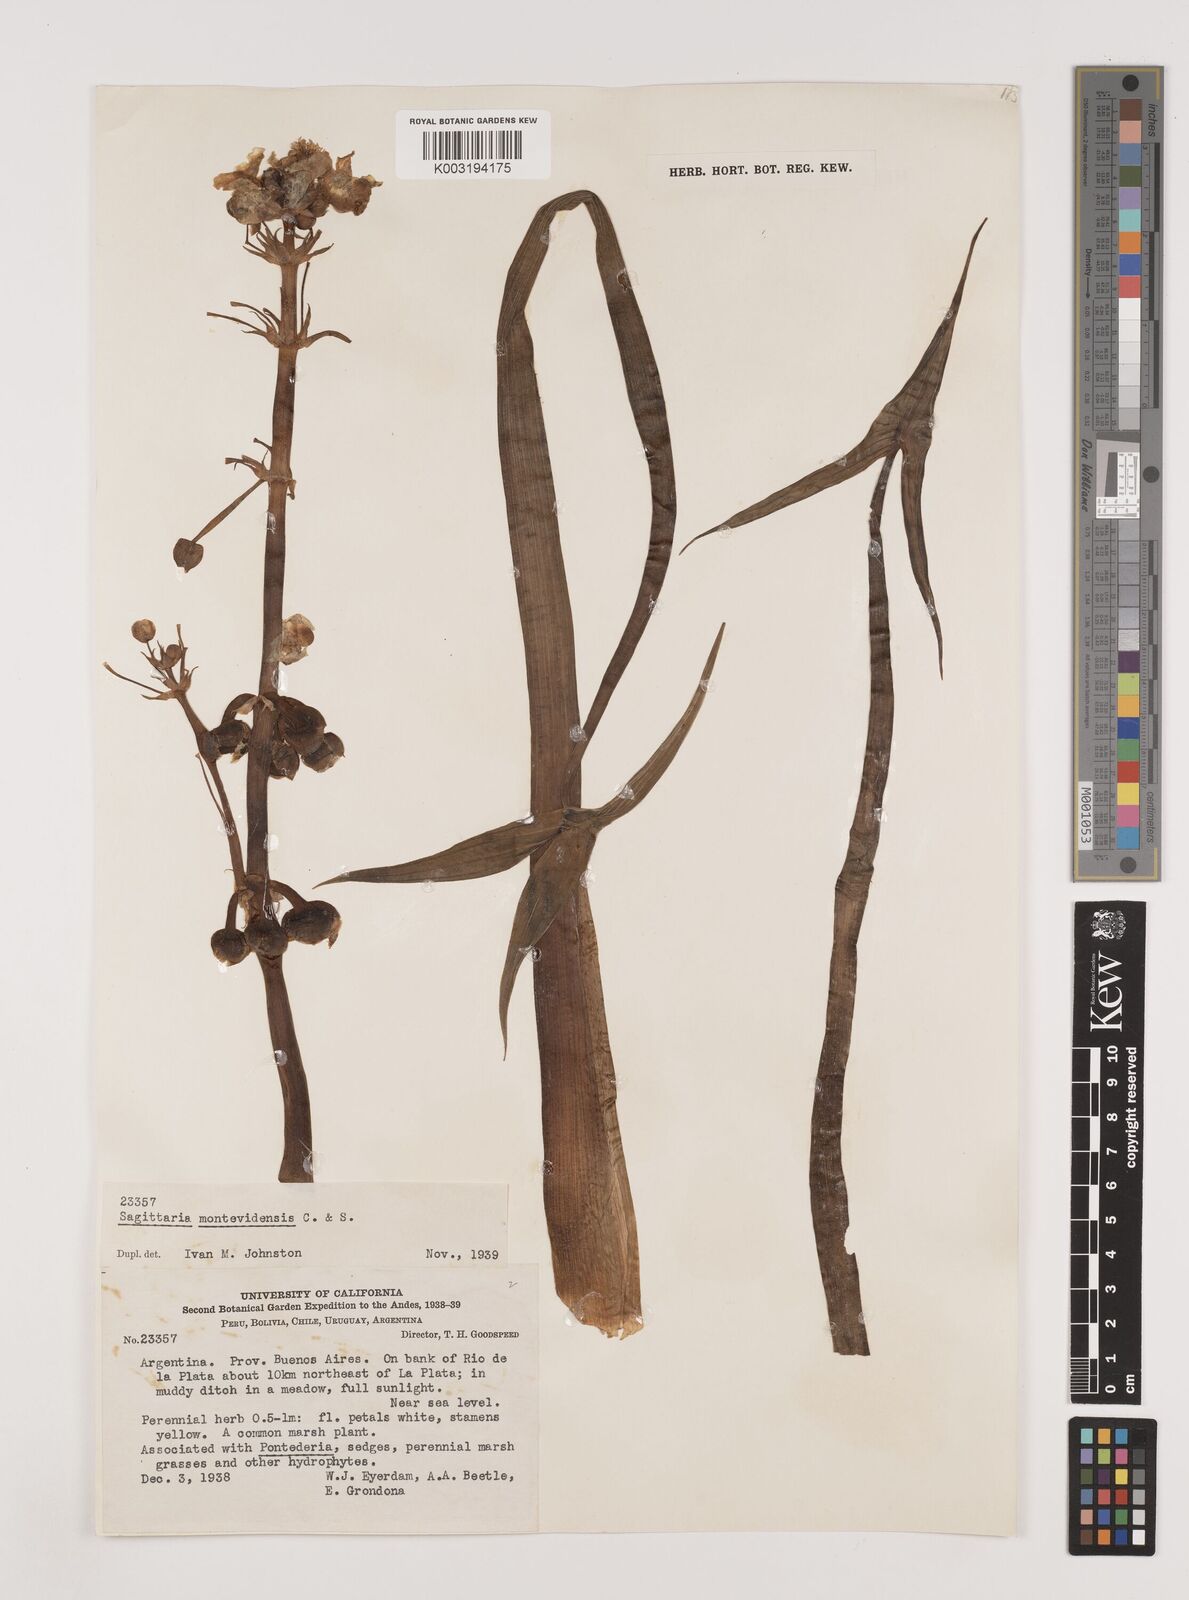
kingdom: Plantae
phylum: Tracheophyta
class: Liliopsida
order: Alismatales
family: Alismataceae
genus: Sagittaria
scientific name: Sagittaria montevidensis
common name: Giant arrowhead
